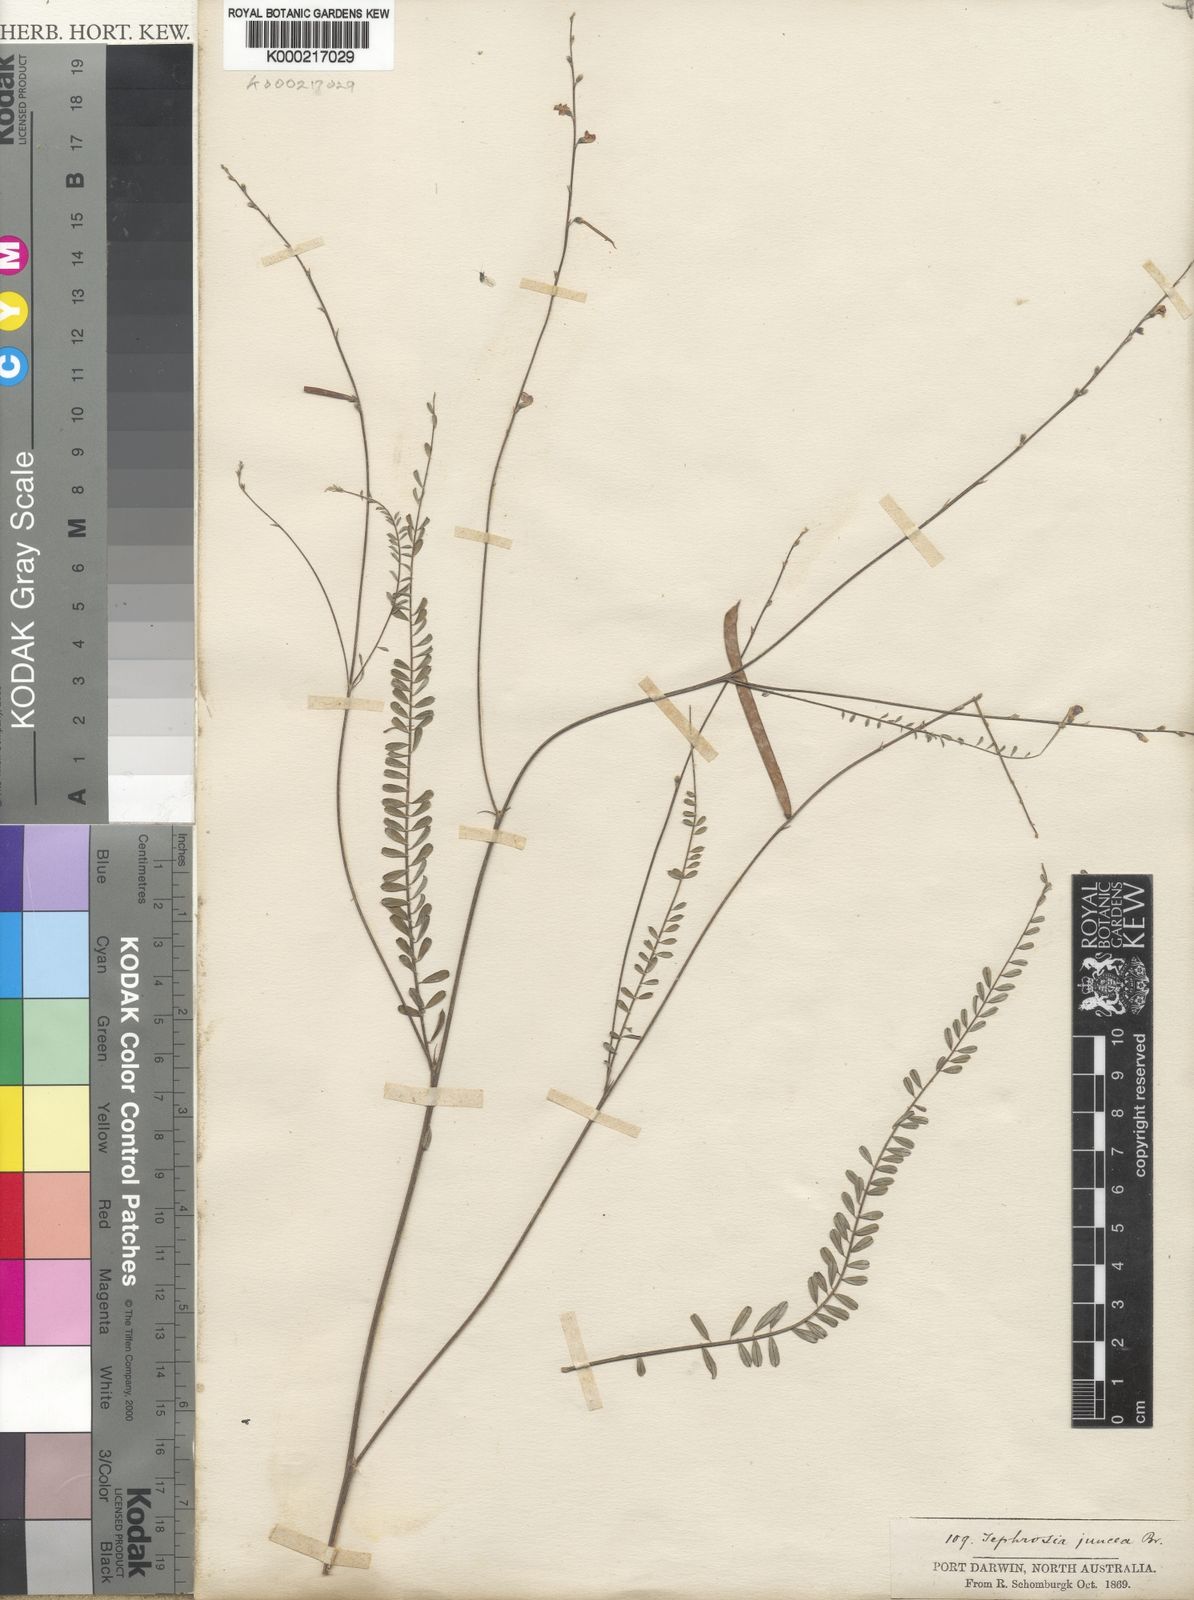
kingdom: Plantae
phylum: Tracheophyta
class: Magnoliopsida
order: Fabales
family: Fabaceae
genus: Tephrosia
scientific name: Tephrosia juncea
